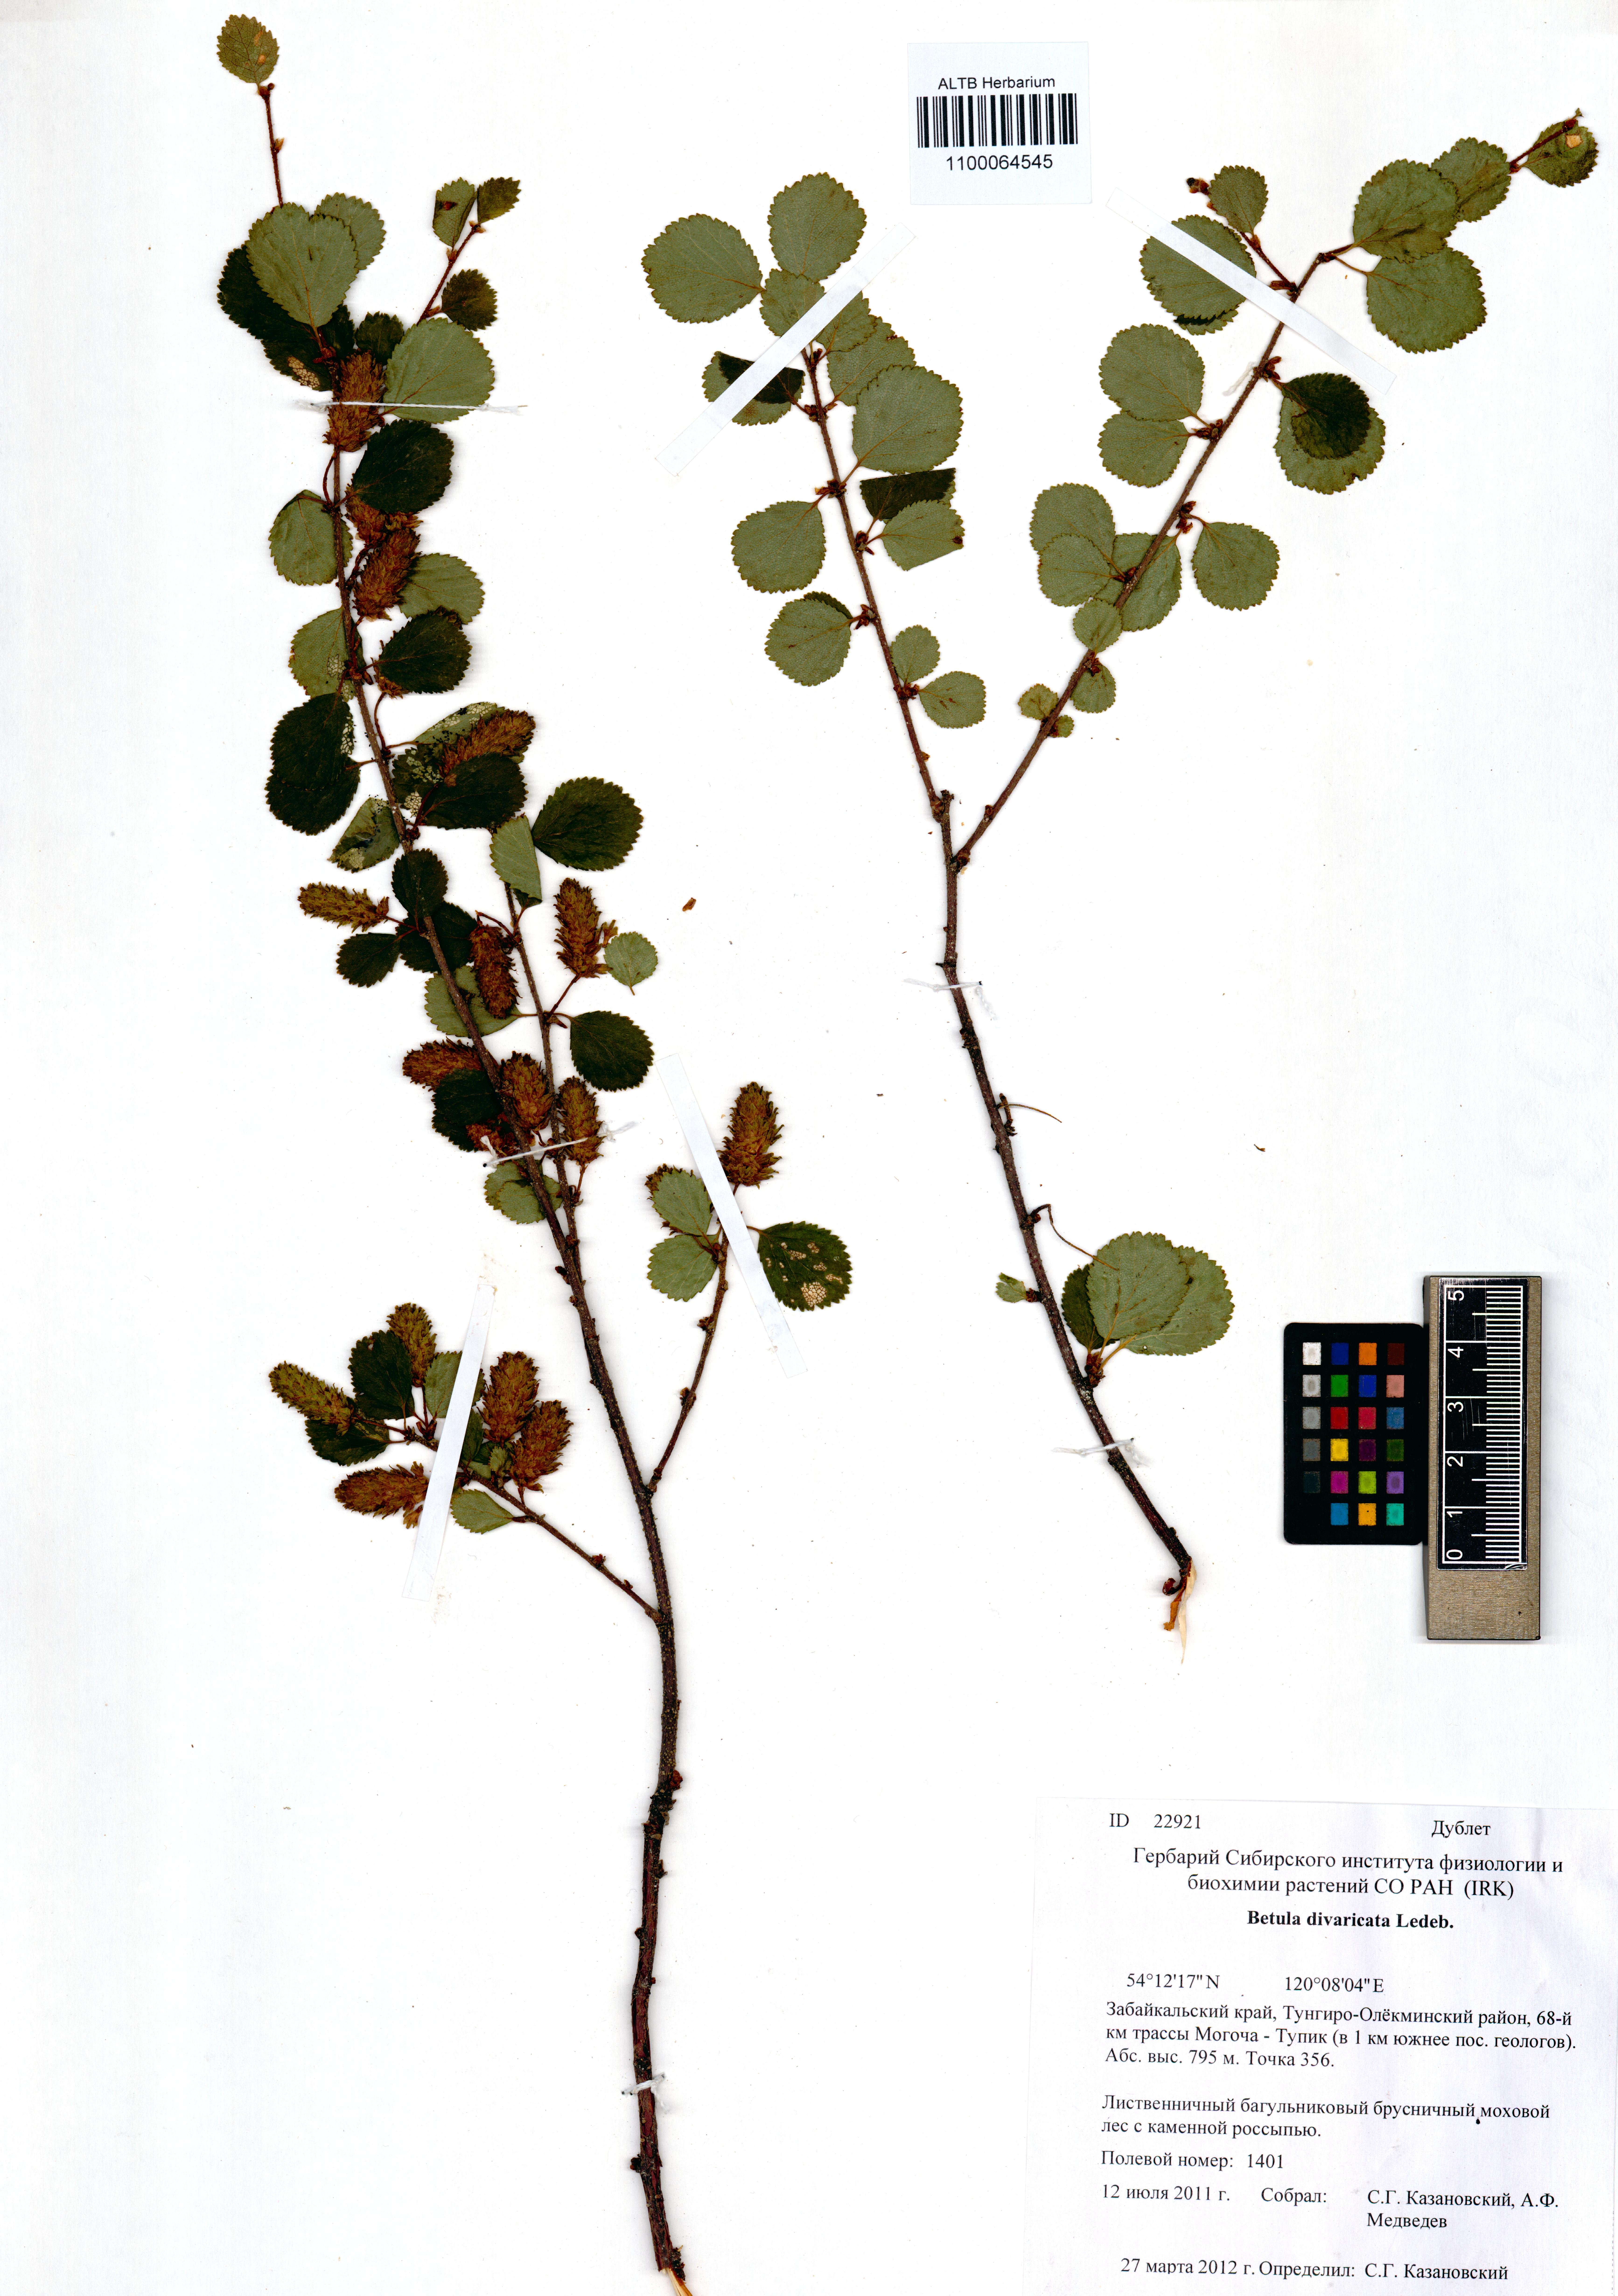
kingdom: Plantae
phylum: Tracheophyta
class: Magnoliopsida
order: Fagales
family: Betulaceae
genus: Betula
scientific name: Betula fruticosa
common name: Japanese bog birch
